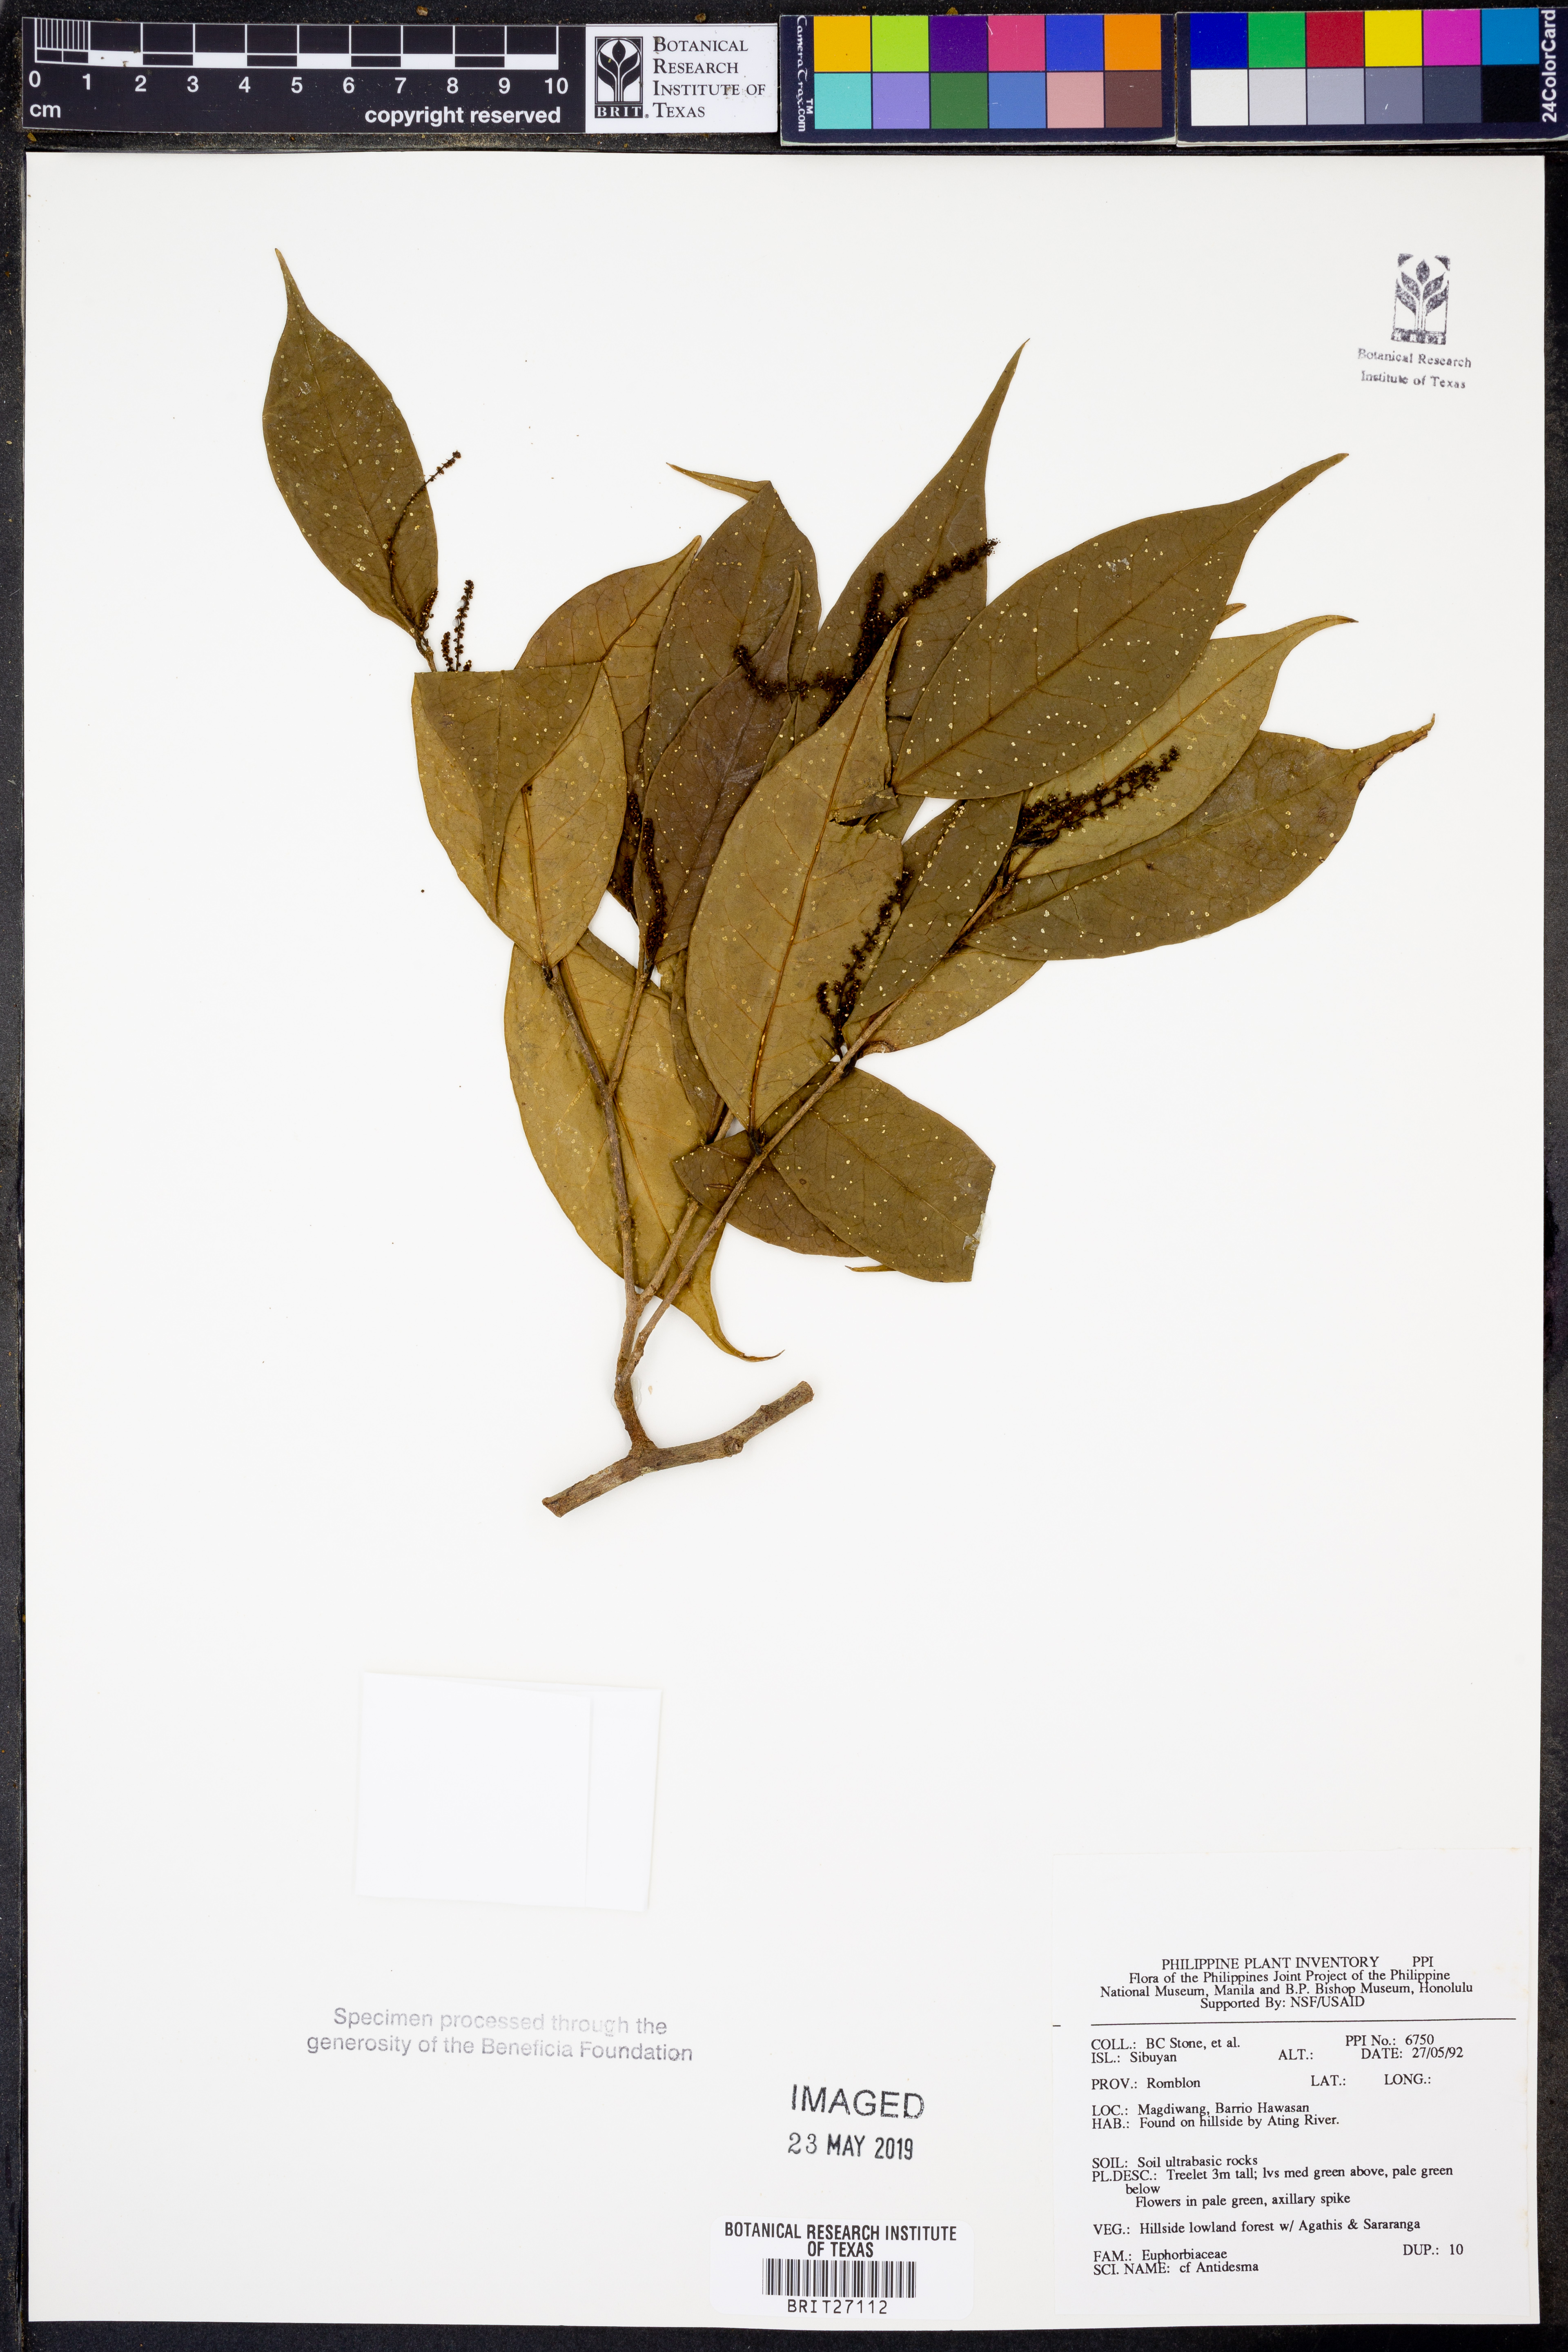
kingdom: Plantae
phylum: Tracheophyta
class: Magnoliopsida
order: Malpighiales
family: Phyllanthaceae
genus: Antidesma
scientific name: Antidesma
